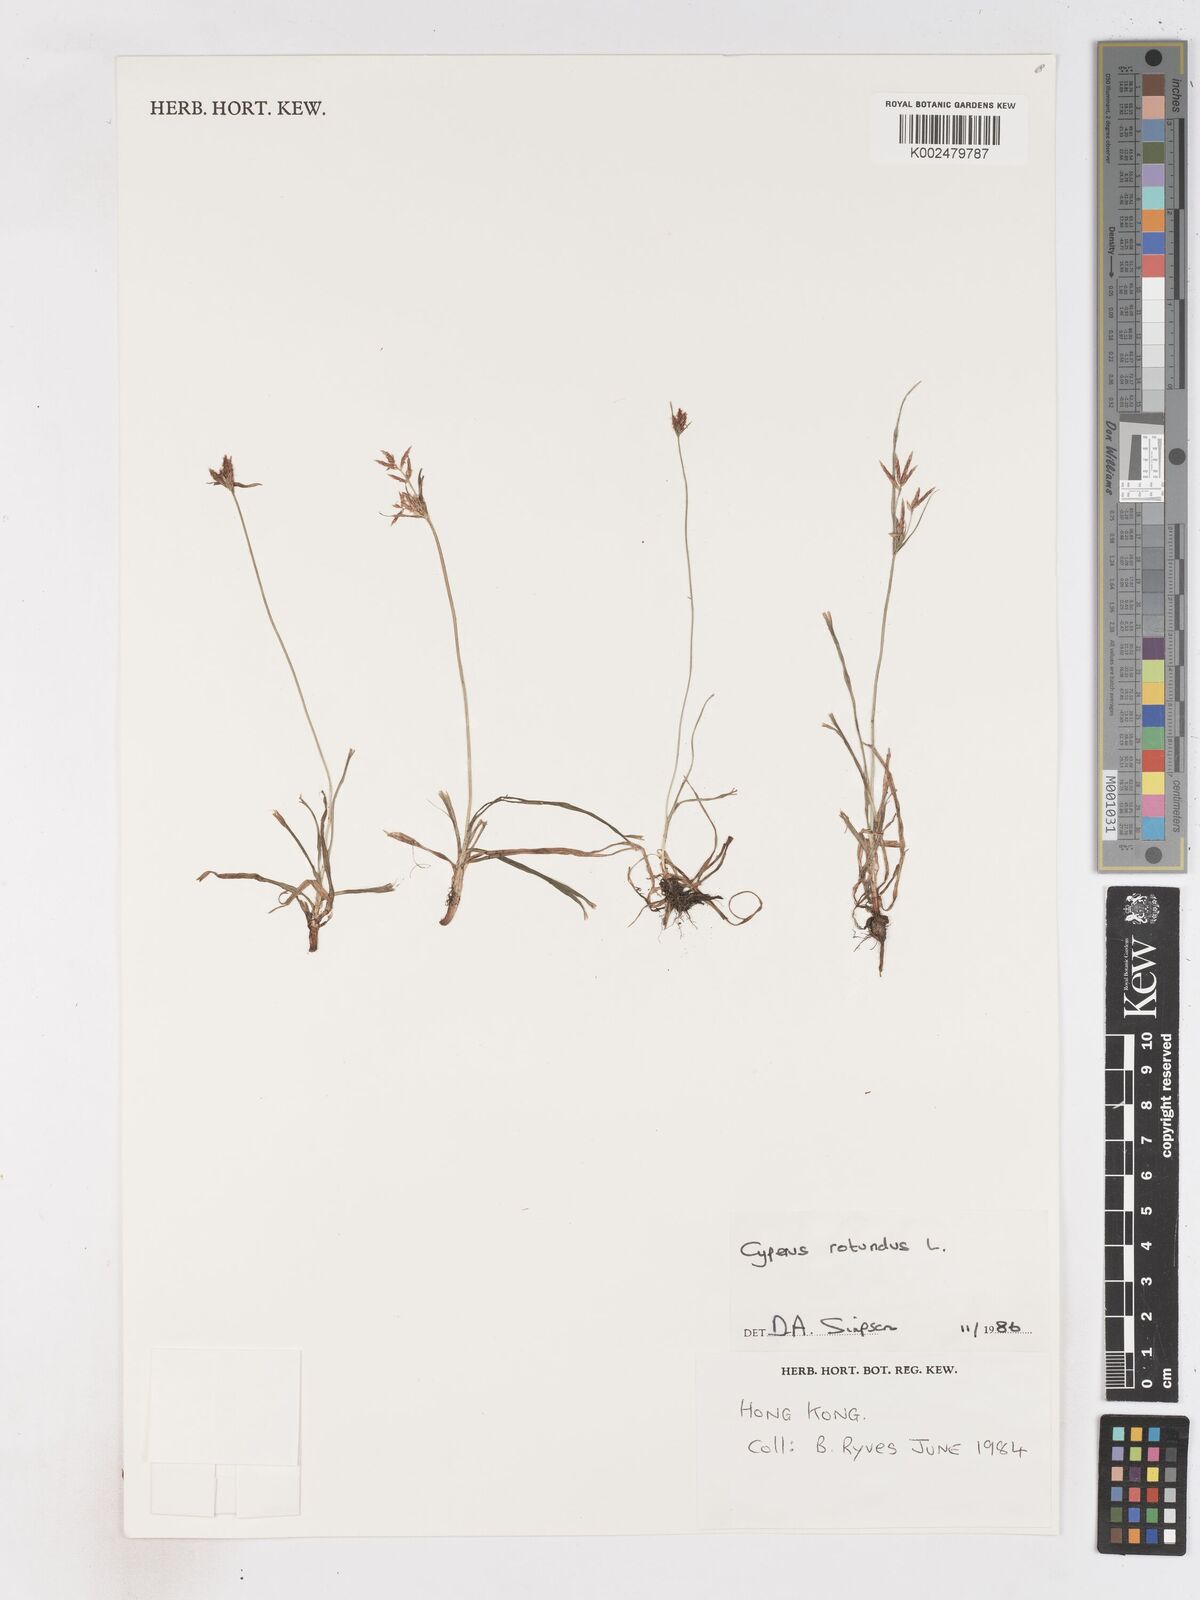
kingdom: Plantae
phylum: Tracheophyta
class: Liliopsida
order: Poales
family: Cyperaceae
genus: Cyperus
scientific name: Cyperus rotundus
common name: Nutgrass
